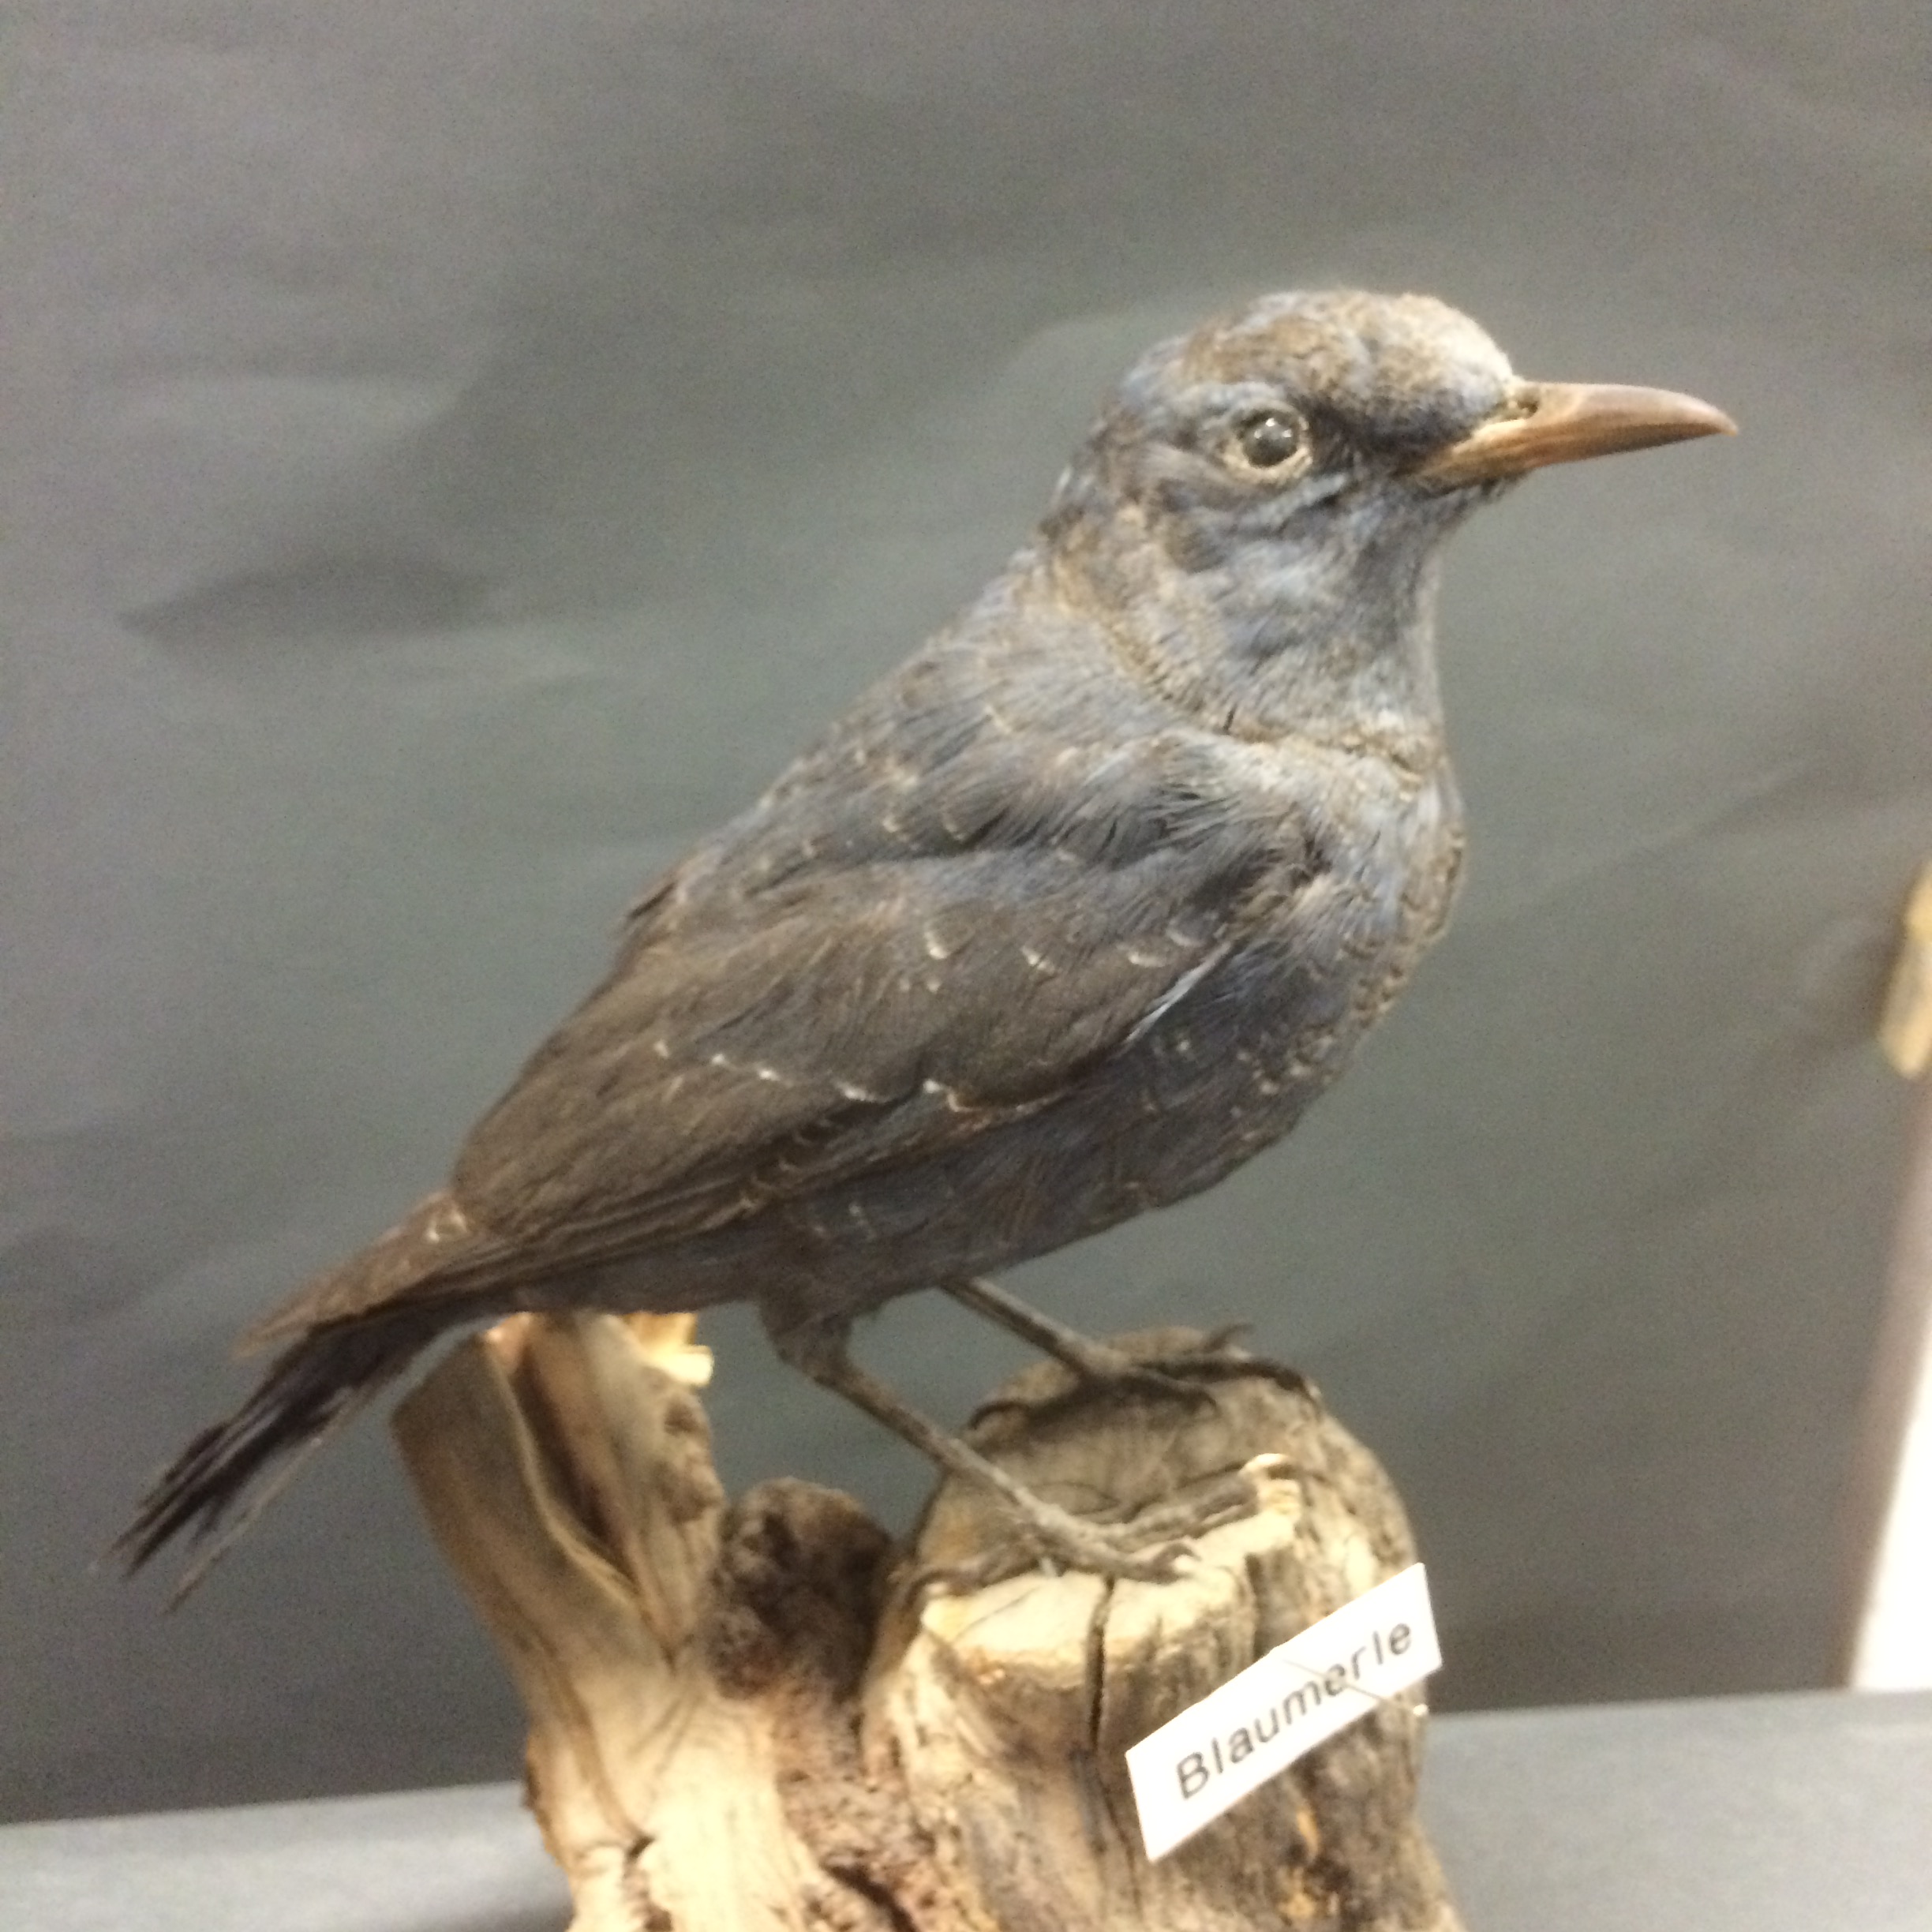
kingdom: Animalia
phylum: Chordata
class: Aves
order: Passeriformes
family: Muscicapidae
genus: Monticola
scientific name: Monticola solitarius
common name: Blue rock thrush
